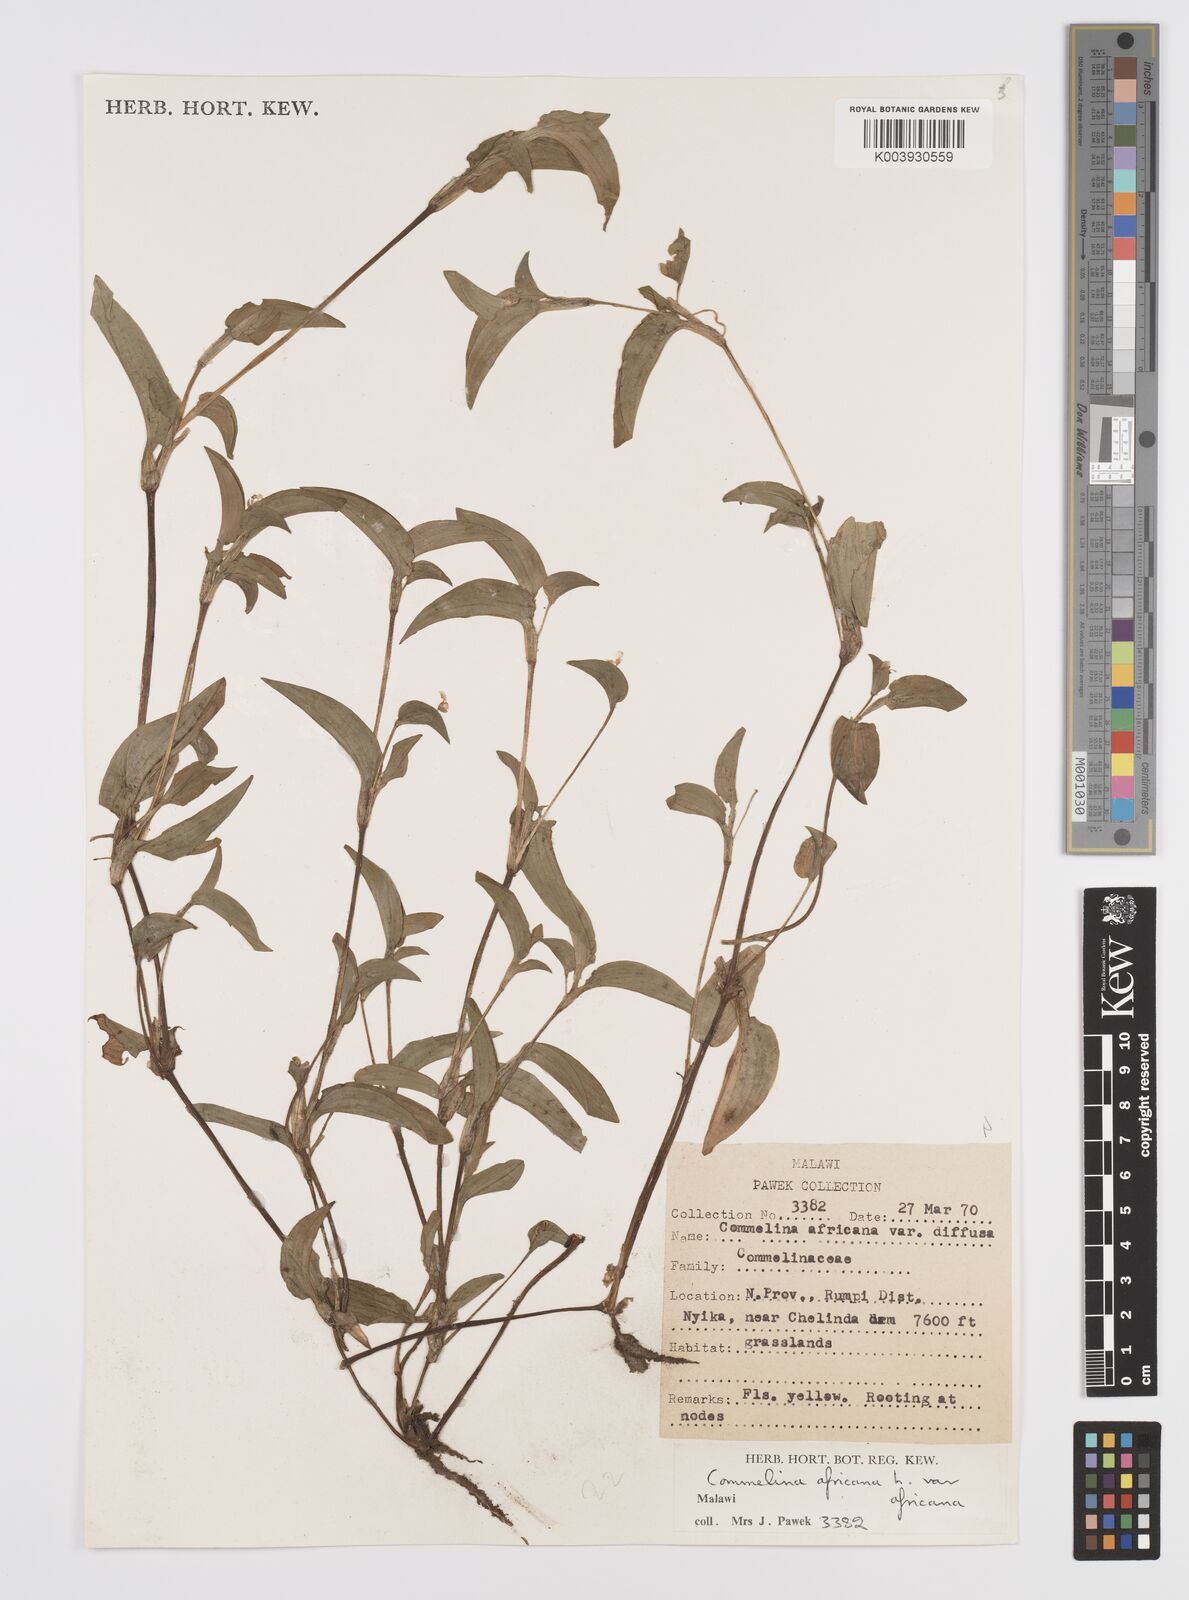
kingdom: Plantae
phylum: Tracheophyta
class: Liliopsida
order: Commelinales
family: Commelinaceae
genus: Commelina
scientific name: Commelina africana
